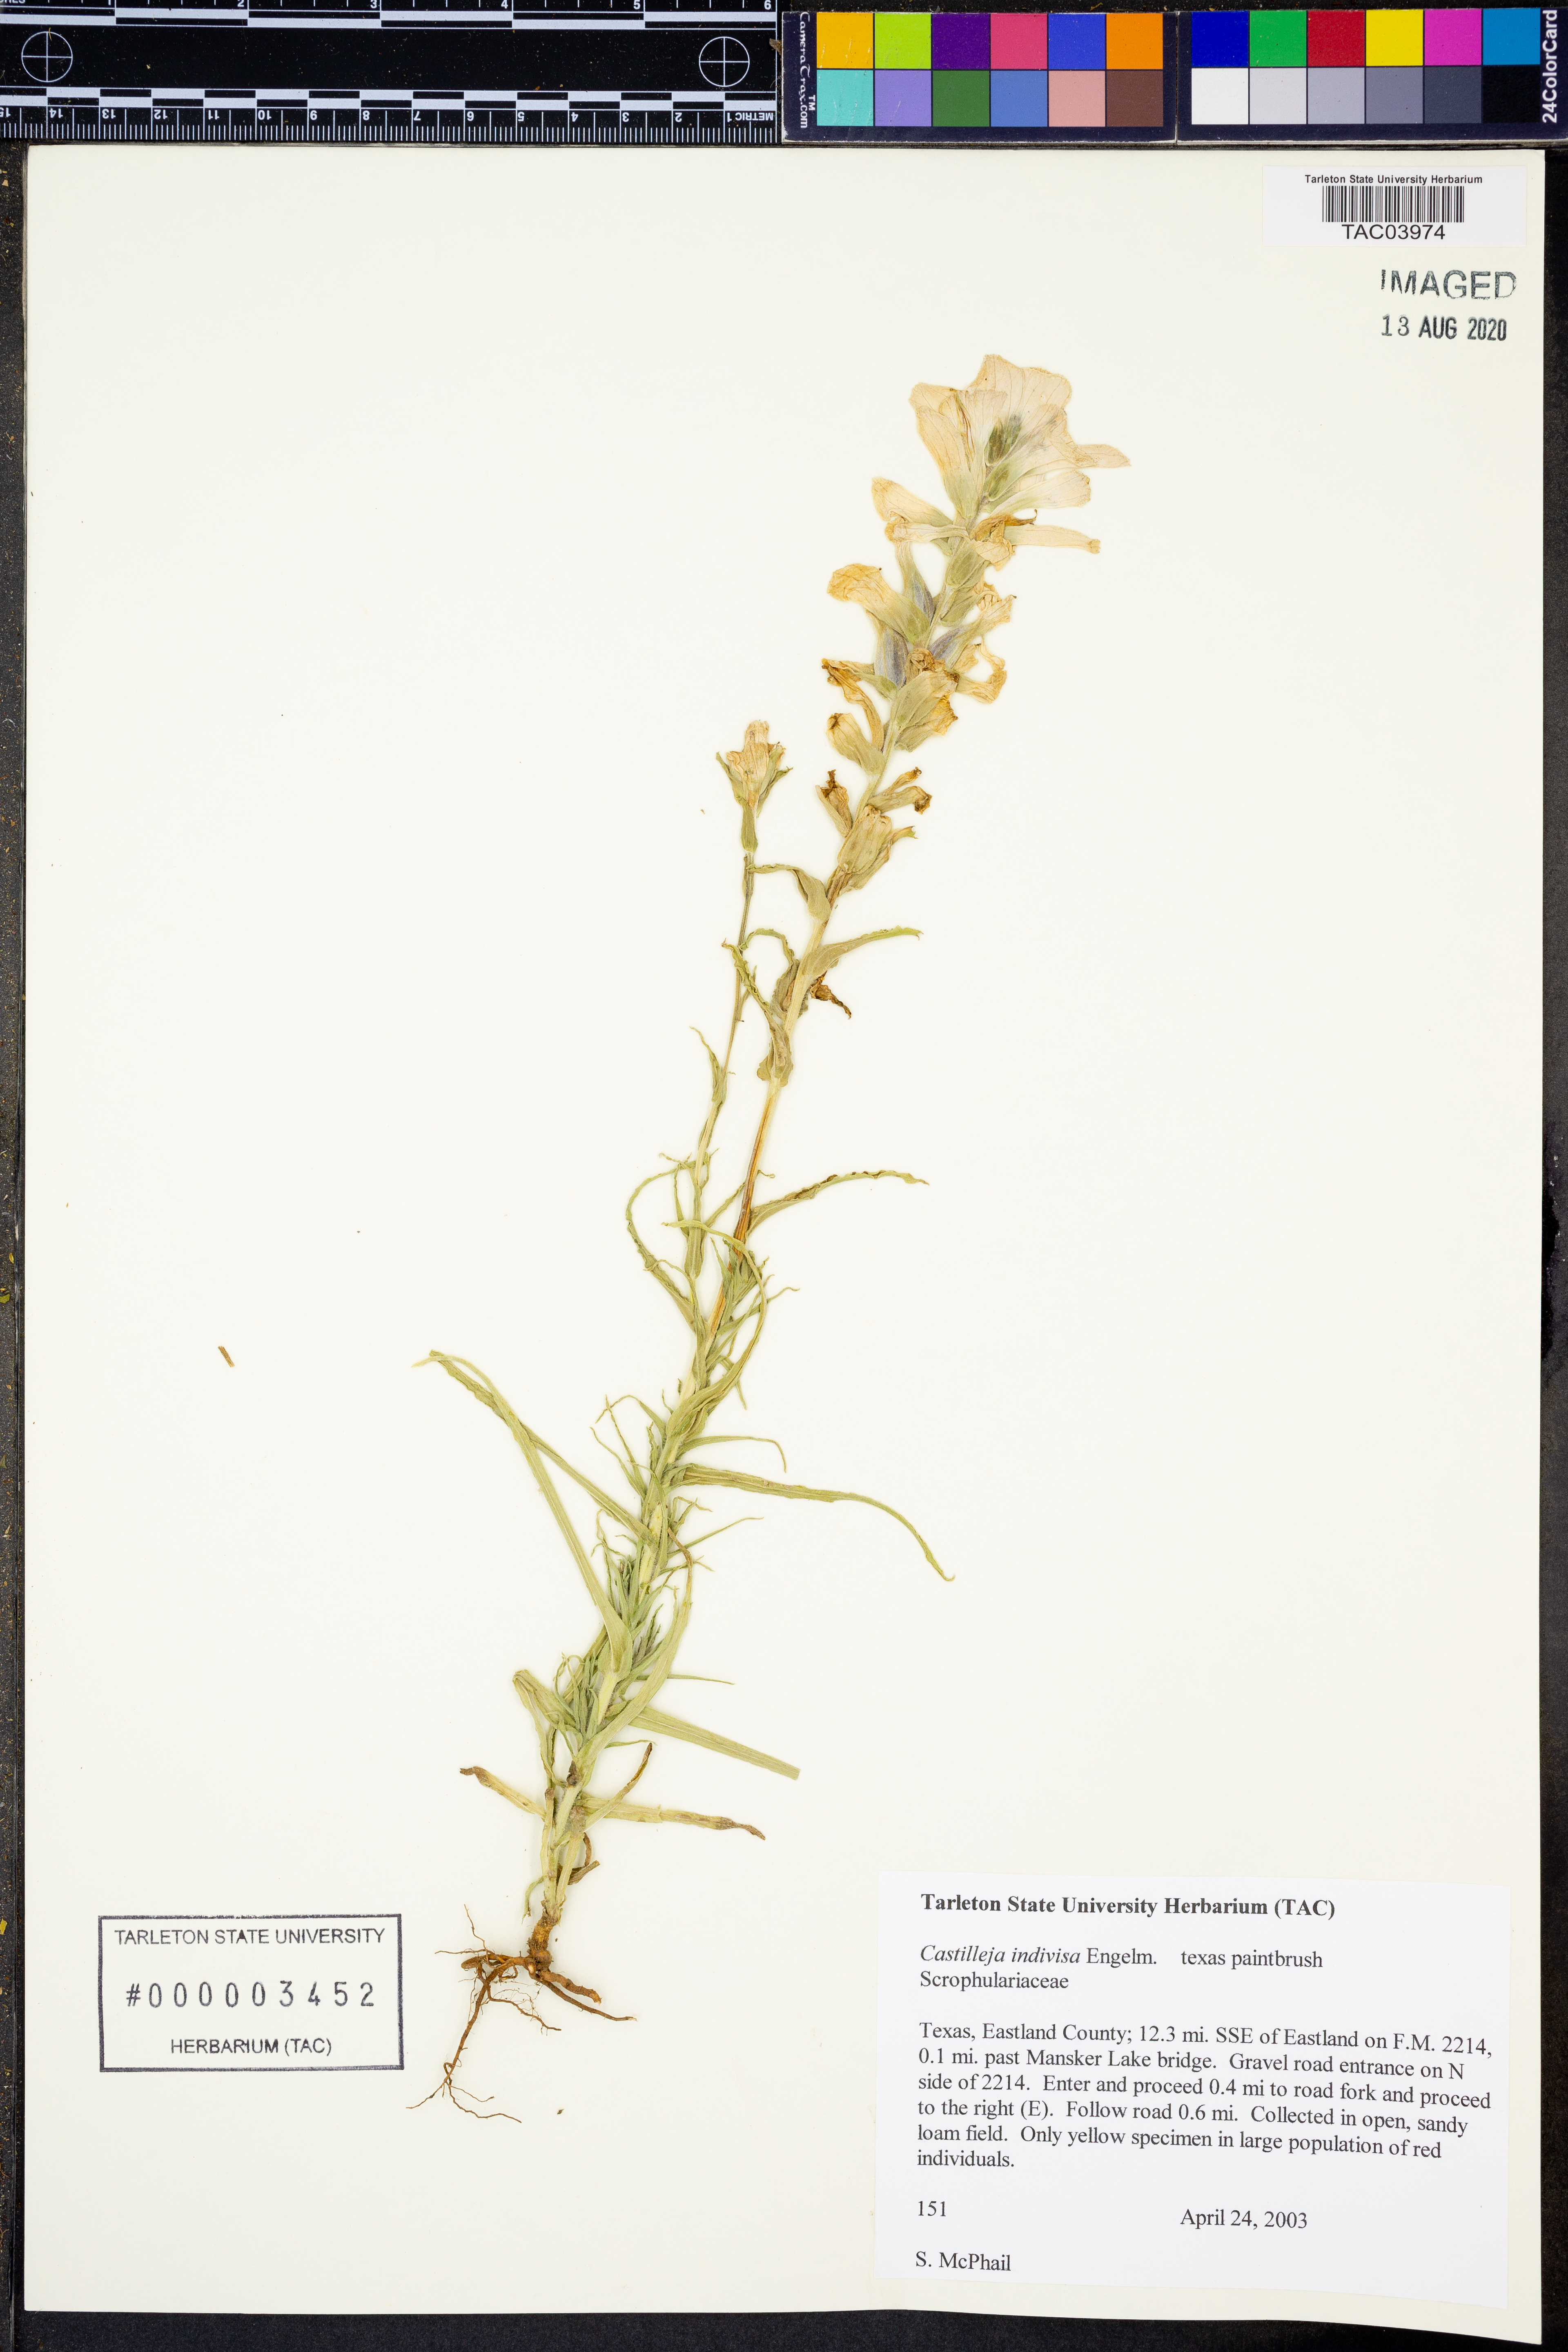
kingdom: Plantae
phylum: Tracheophyta
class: Magnoliopsida
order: Lamiales
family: Orobanchaceae
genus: Castilleja
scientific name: Castilleja indivisa
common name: Texas paintbrush
